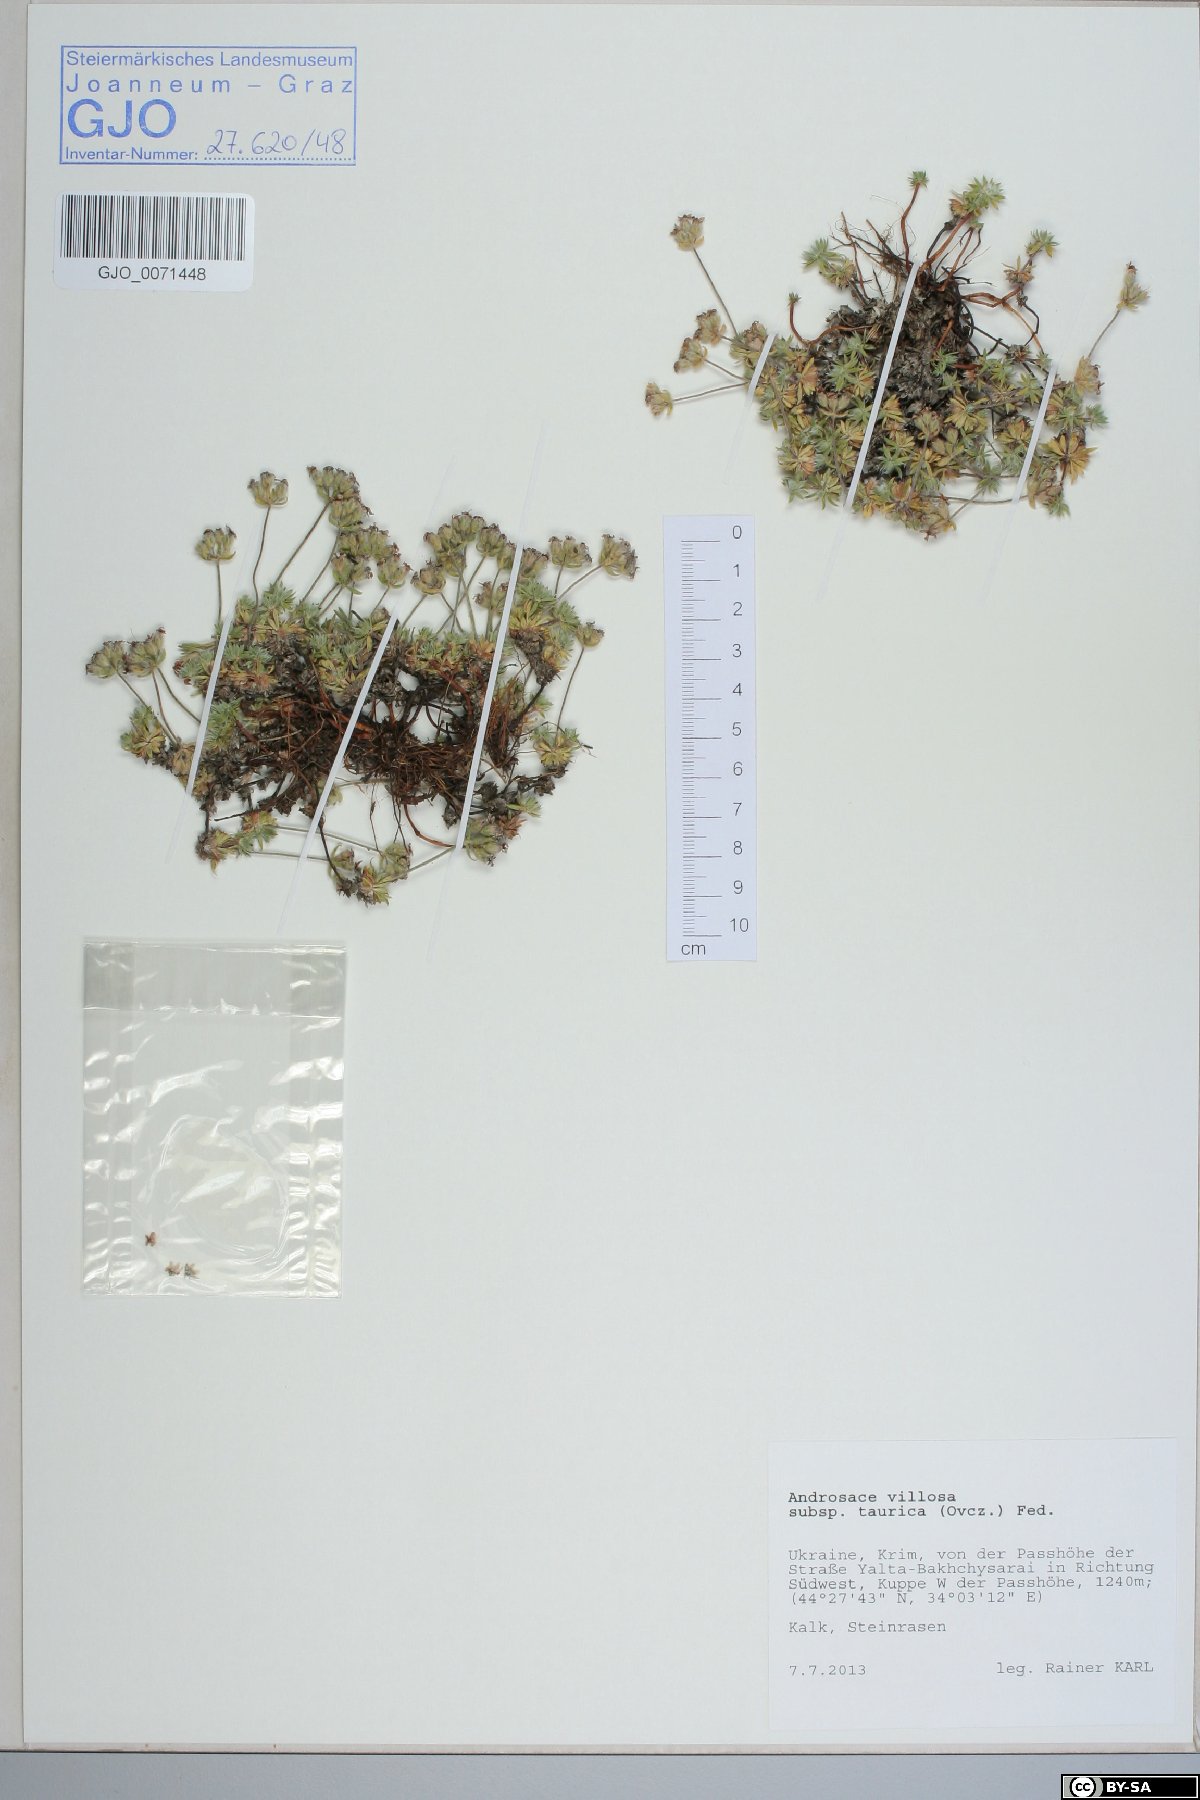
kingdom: Plantae
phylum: Tracheophyta
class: Magnoliopsida
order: Ericales
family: Primulaceae
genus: Androsace
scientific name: Androsace villosa
